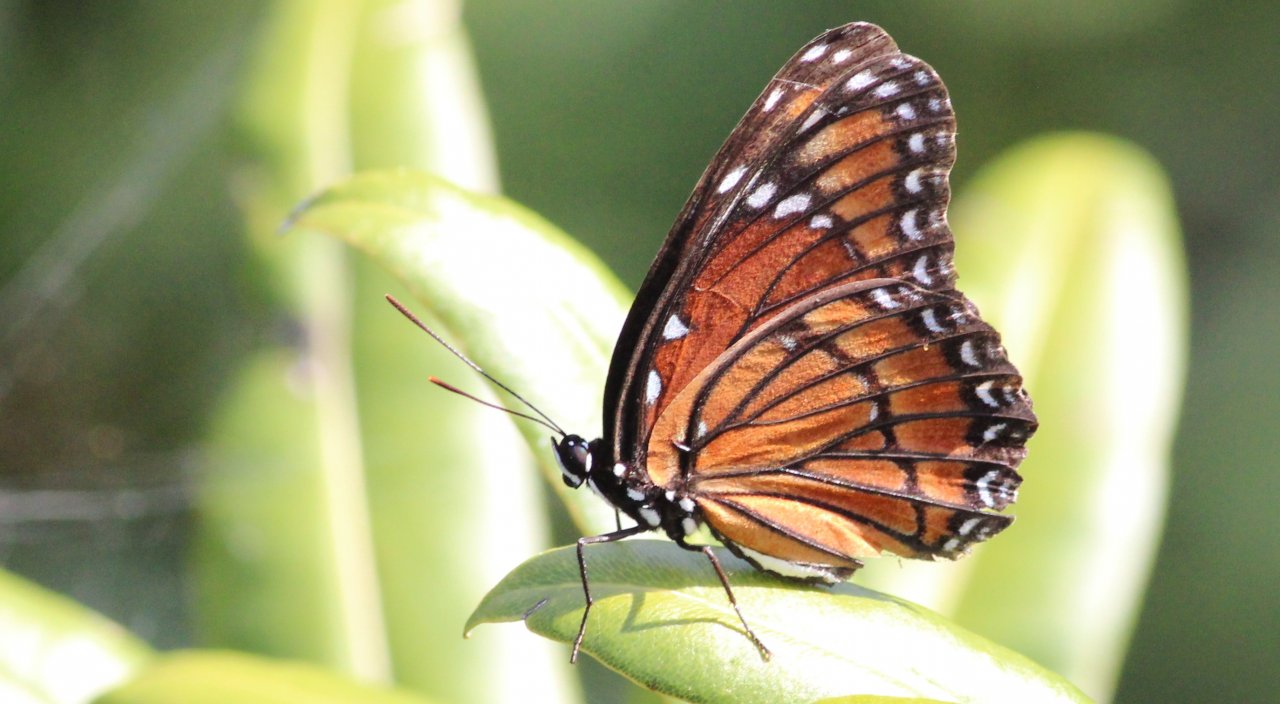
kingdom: Animalia
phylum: Arthropoda
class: Insecta
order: Lepidoptera
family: Nymphalidae
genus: Limenitis
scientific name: Limenitis archippus
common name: Viceroy
